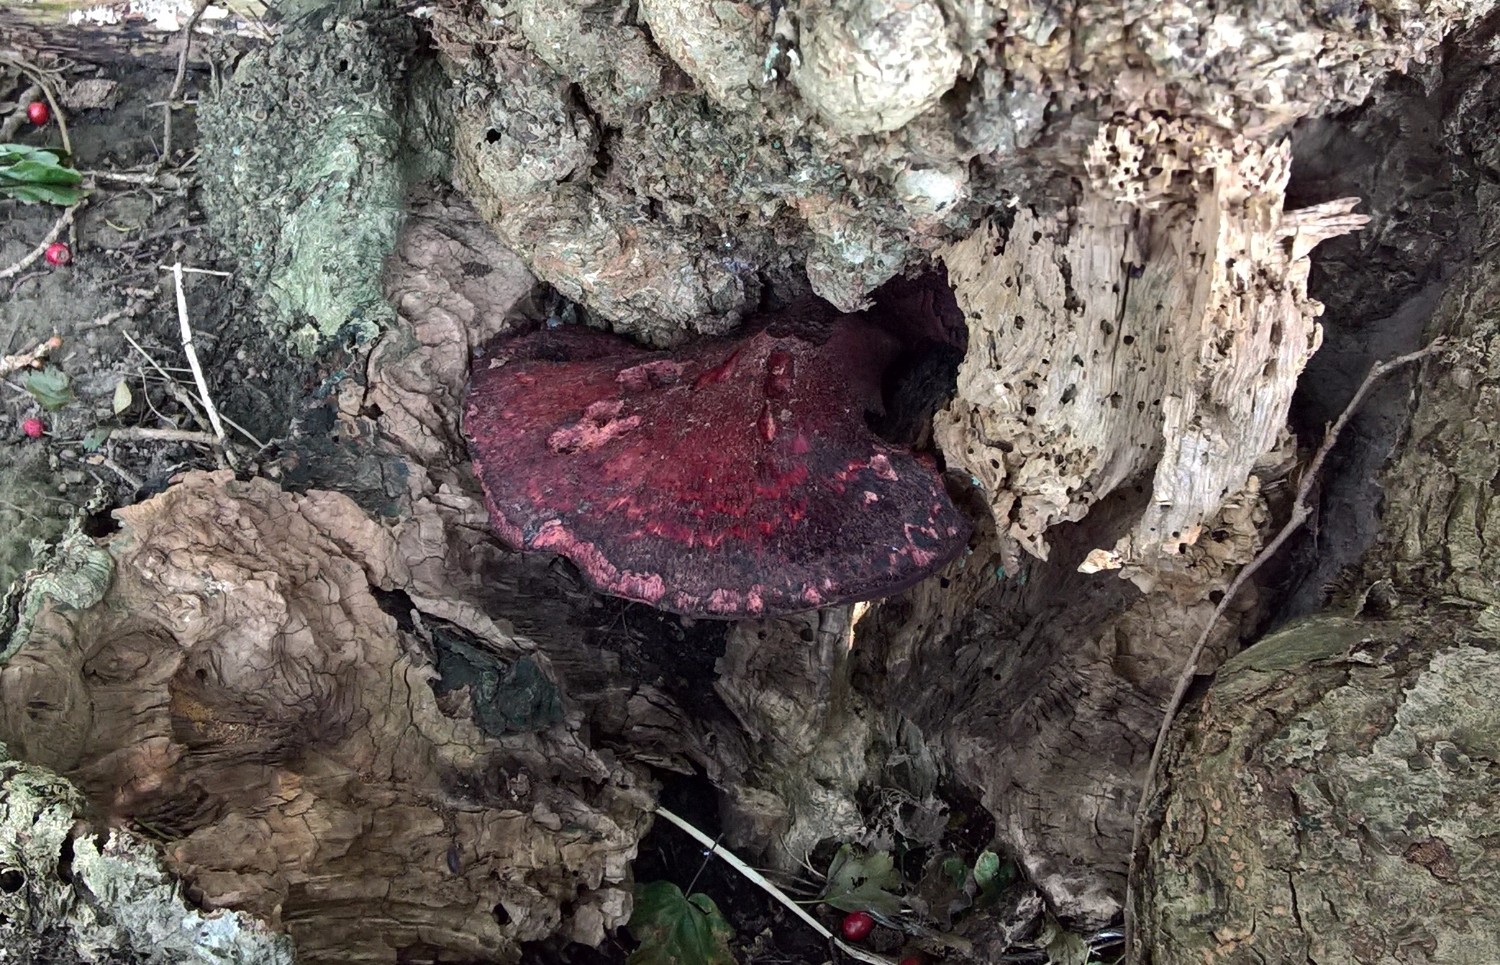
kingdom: Fungi
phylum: Basidiomycota
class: Agaricomycetes
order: Agaricales
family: Fistulinaceae
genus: Fistulina
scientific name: Fistulina hepatica
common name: oksetunge
